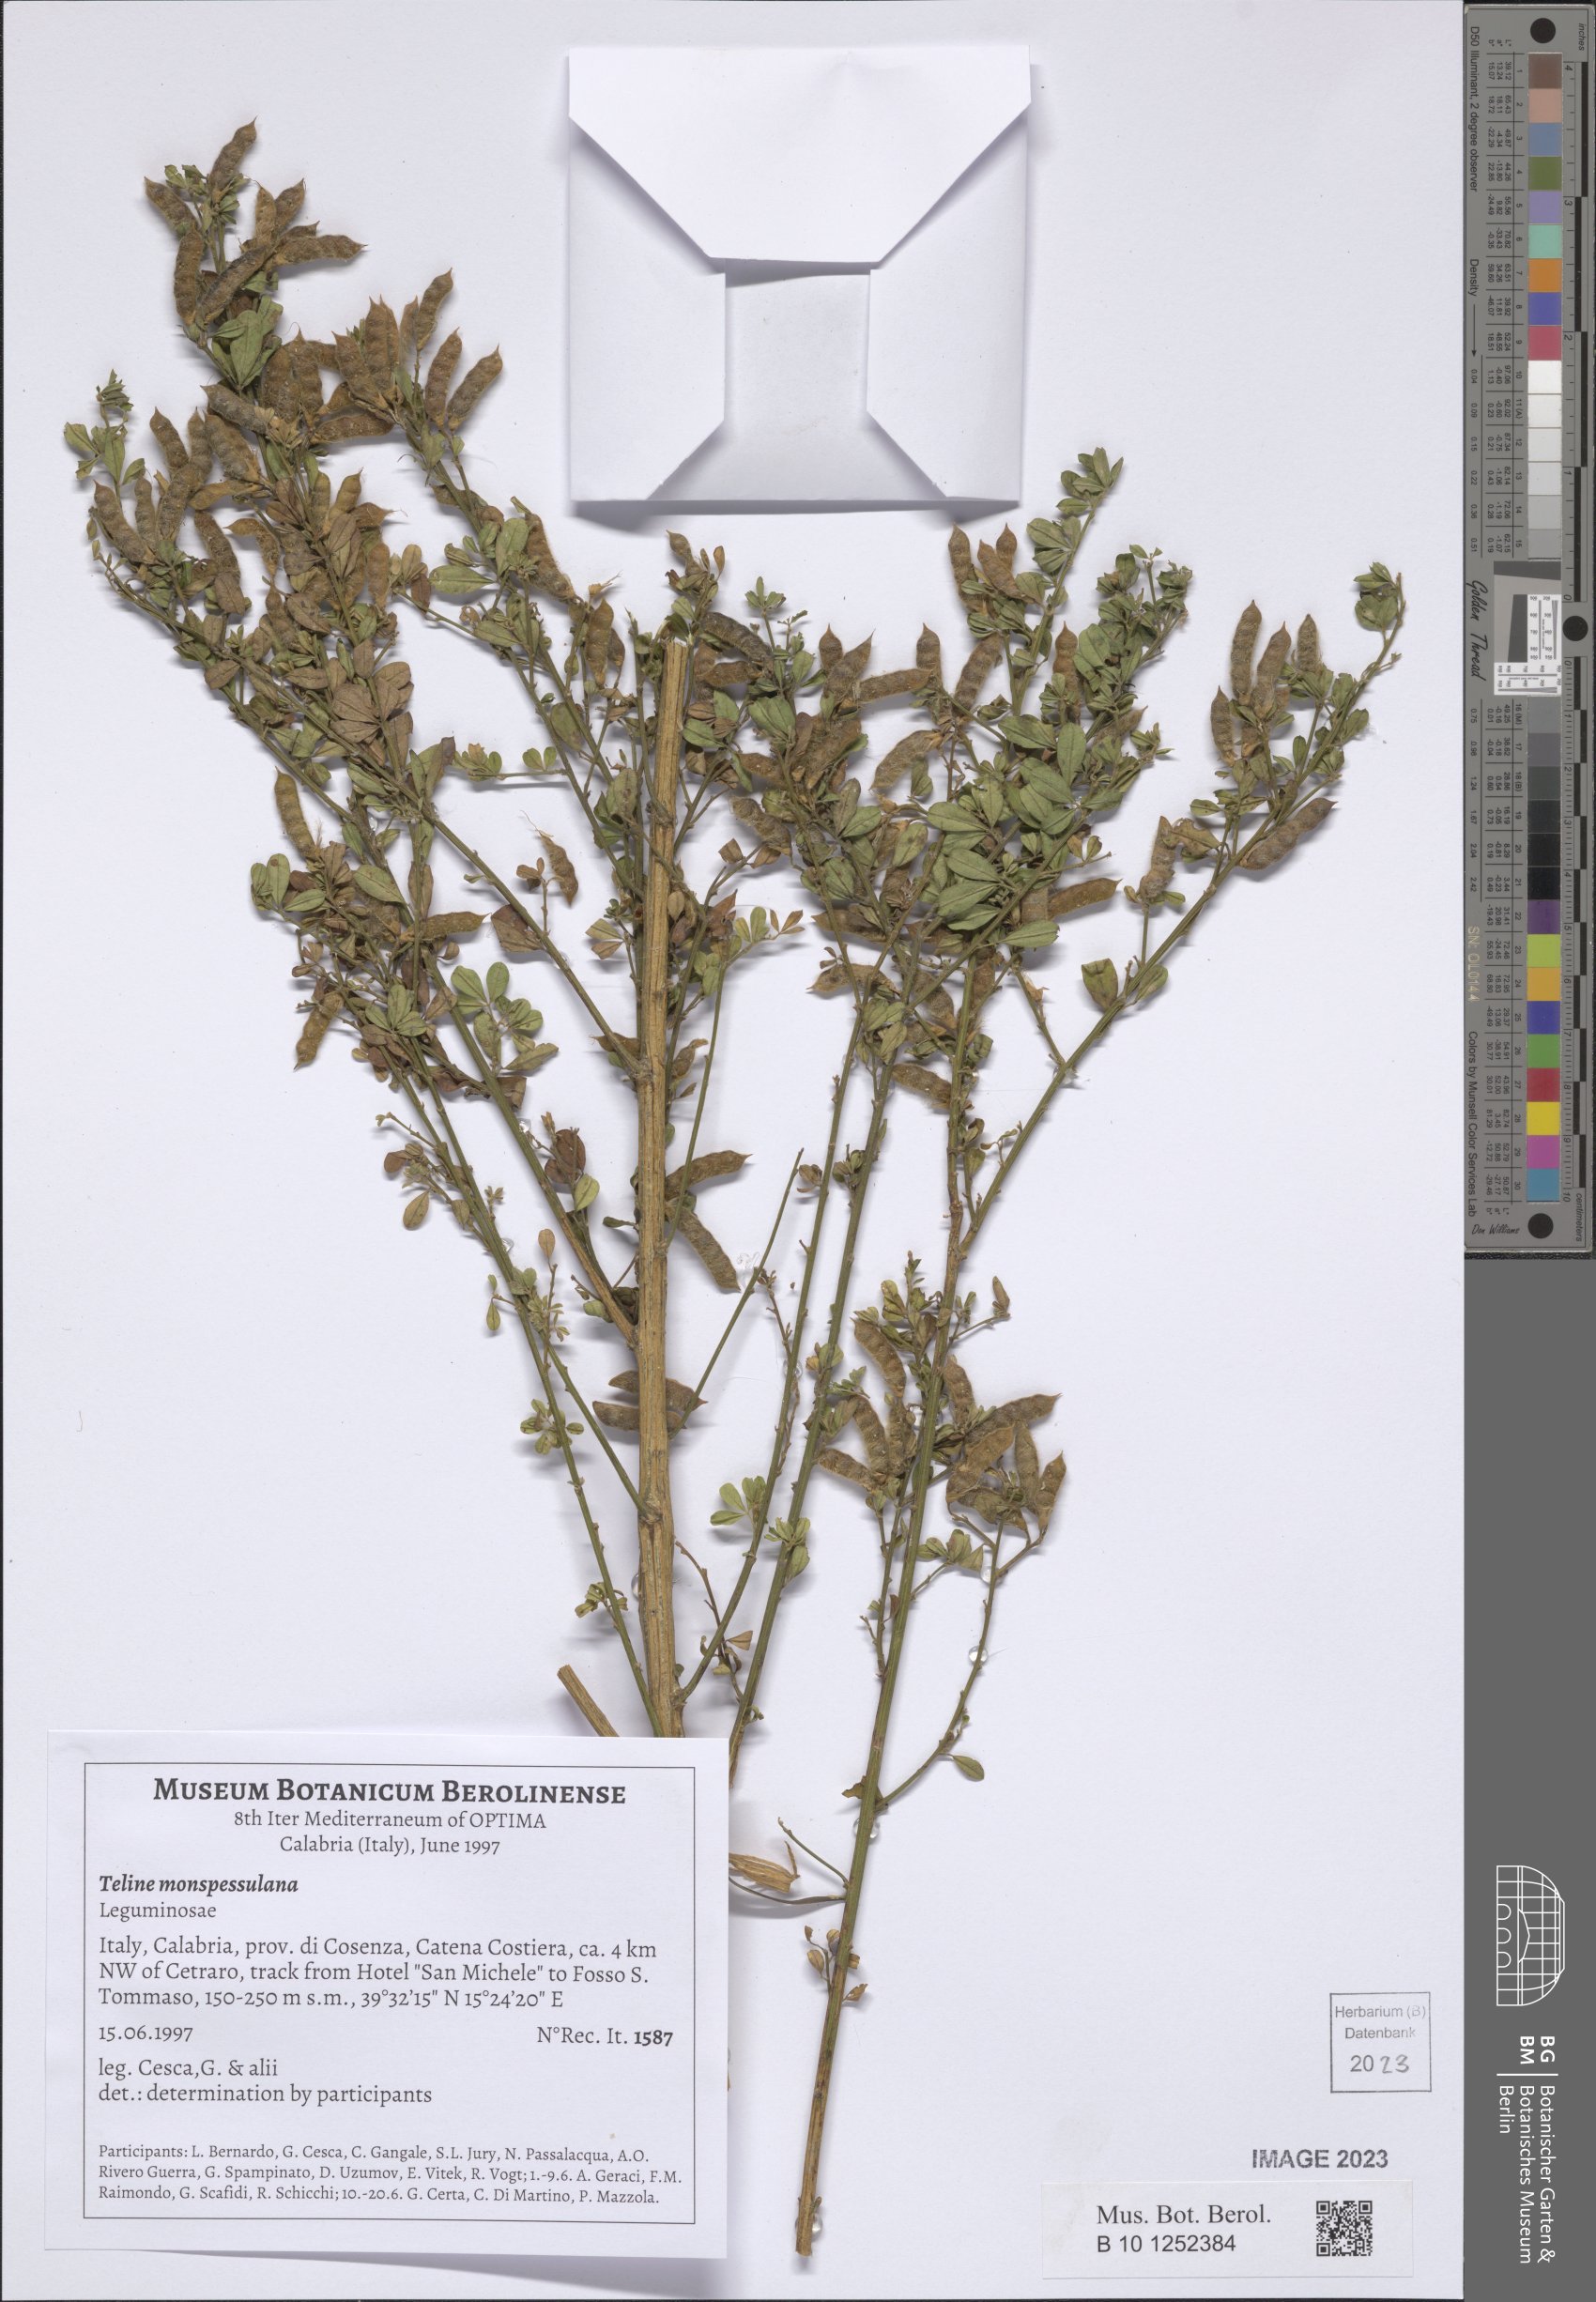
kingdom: Plantae
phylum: Tracheophyta
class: Magnoliopsida
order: Fabales
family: Fabaceae
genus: Genista
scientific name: Genista monspessulana
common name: Montpellier broom
